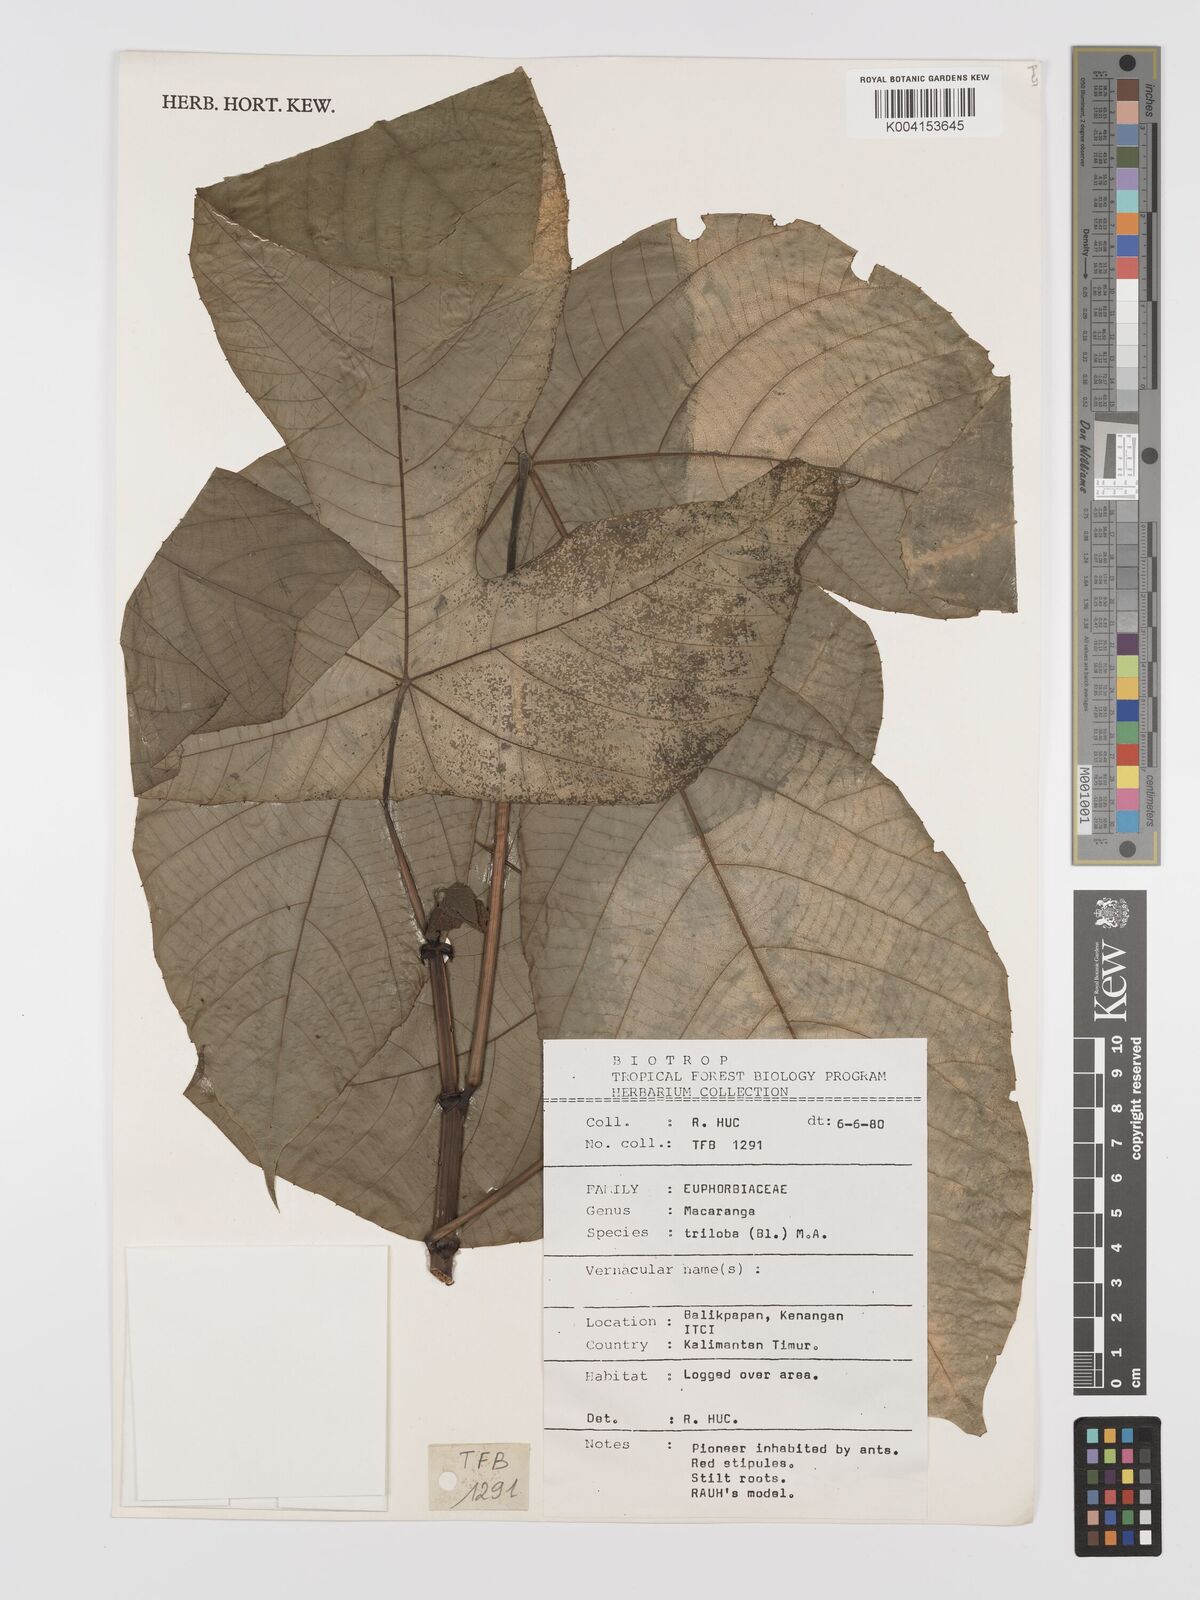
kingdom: Plantae
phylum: Tracheophyta
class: Magnoliopsida
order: Malpighiales
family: Euphorbiaceae
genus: Macaranga
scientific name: Macaranga triloba
